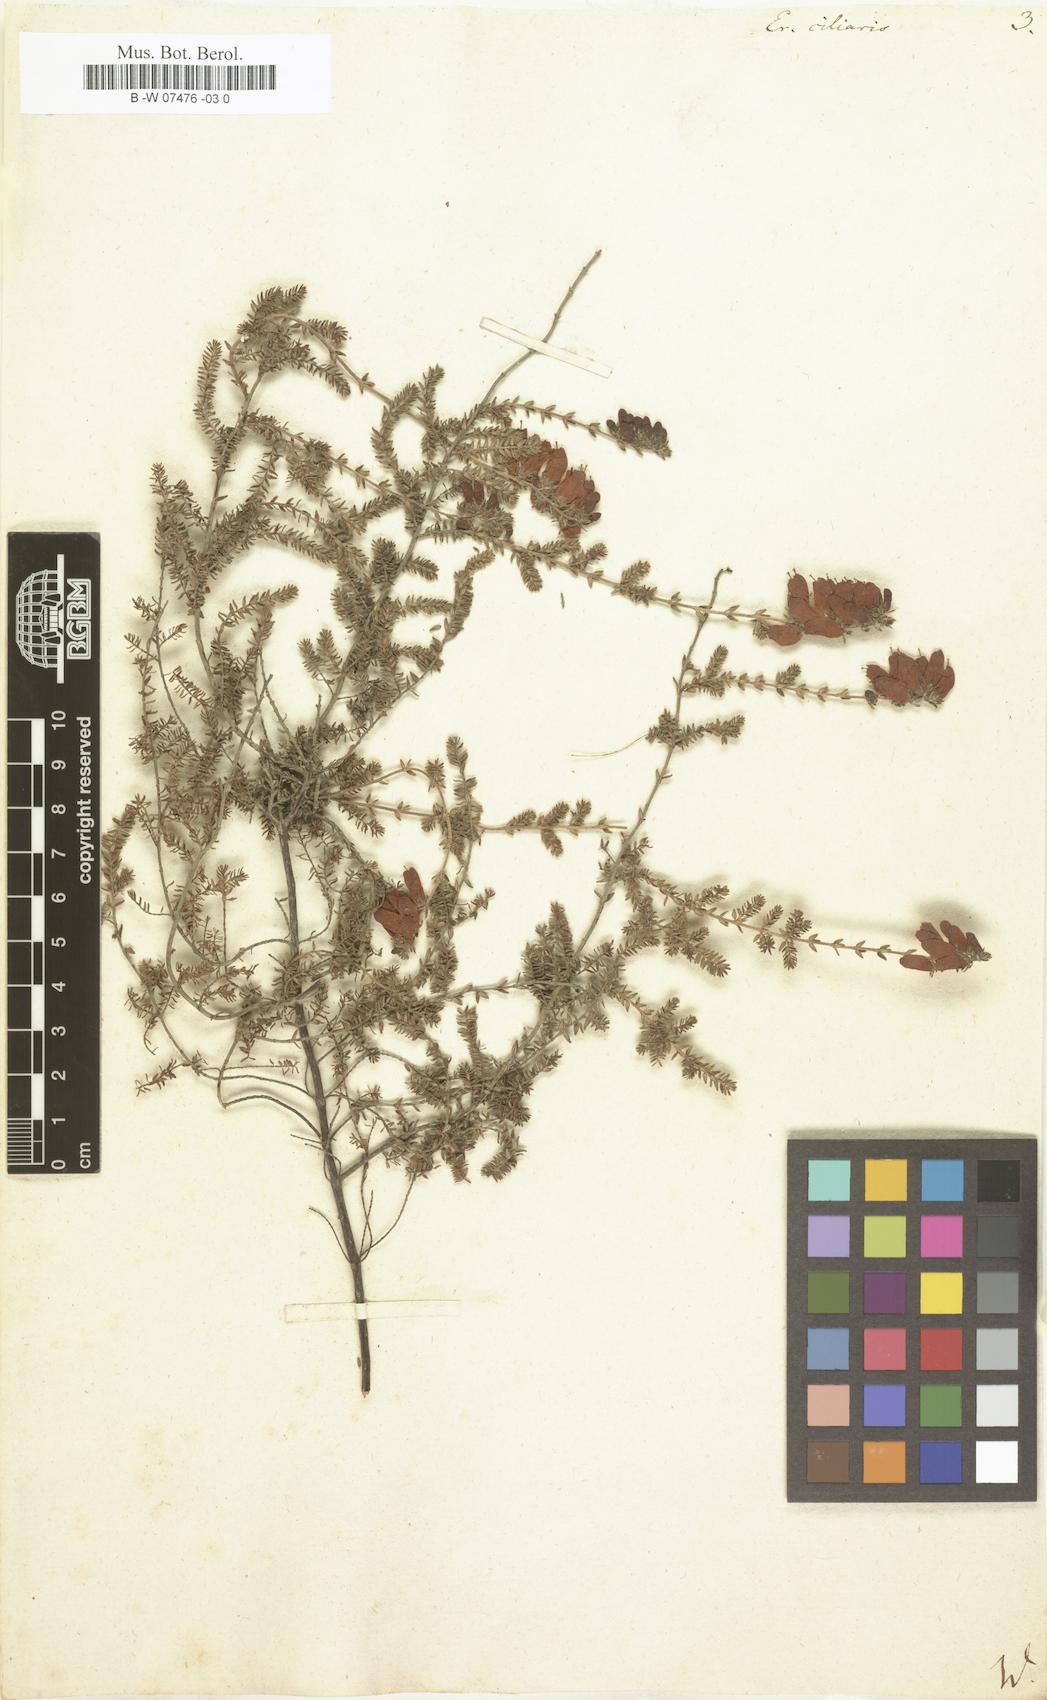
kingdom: Plantae
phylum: Tracheophyta
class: Magnoliopsida
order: Ericales
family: Ericaceae
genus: Erica
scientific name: Erica ciliaris
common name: Dorset heath
